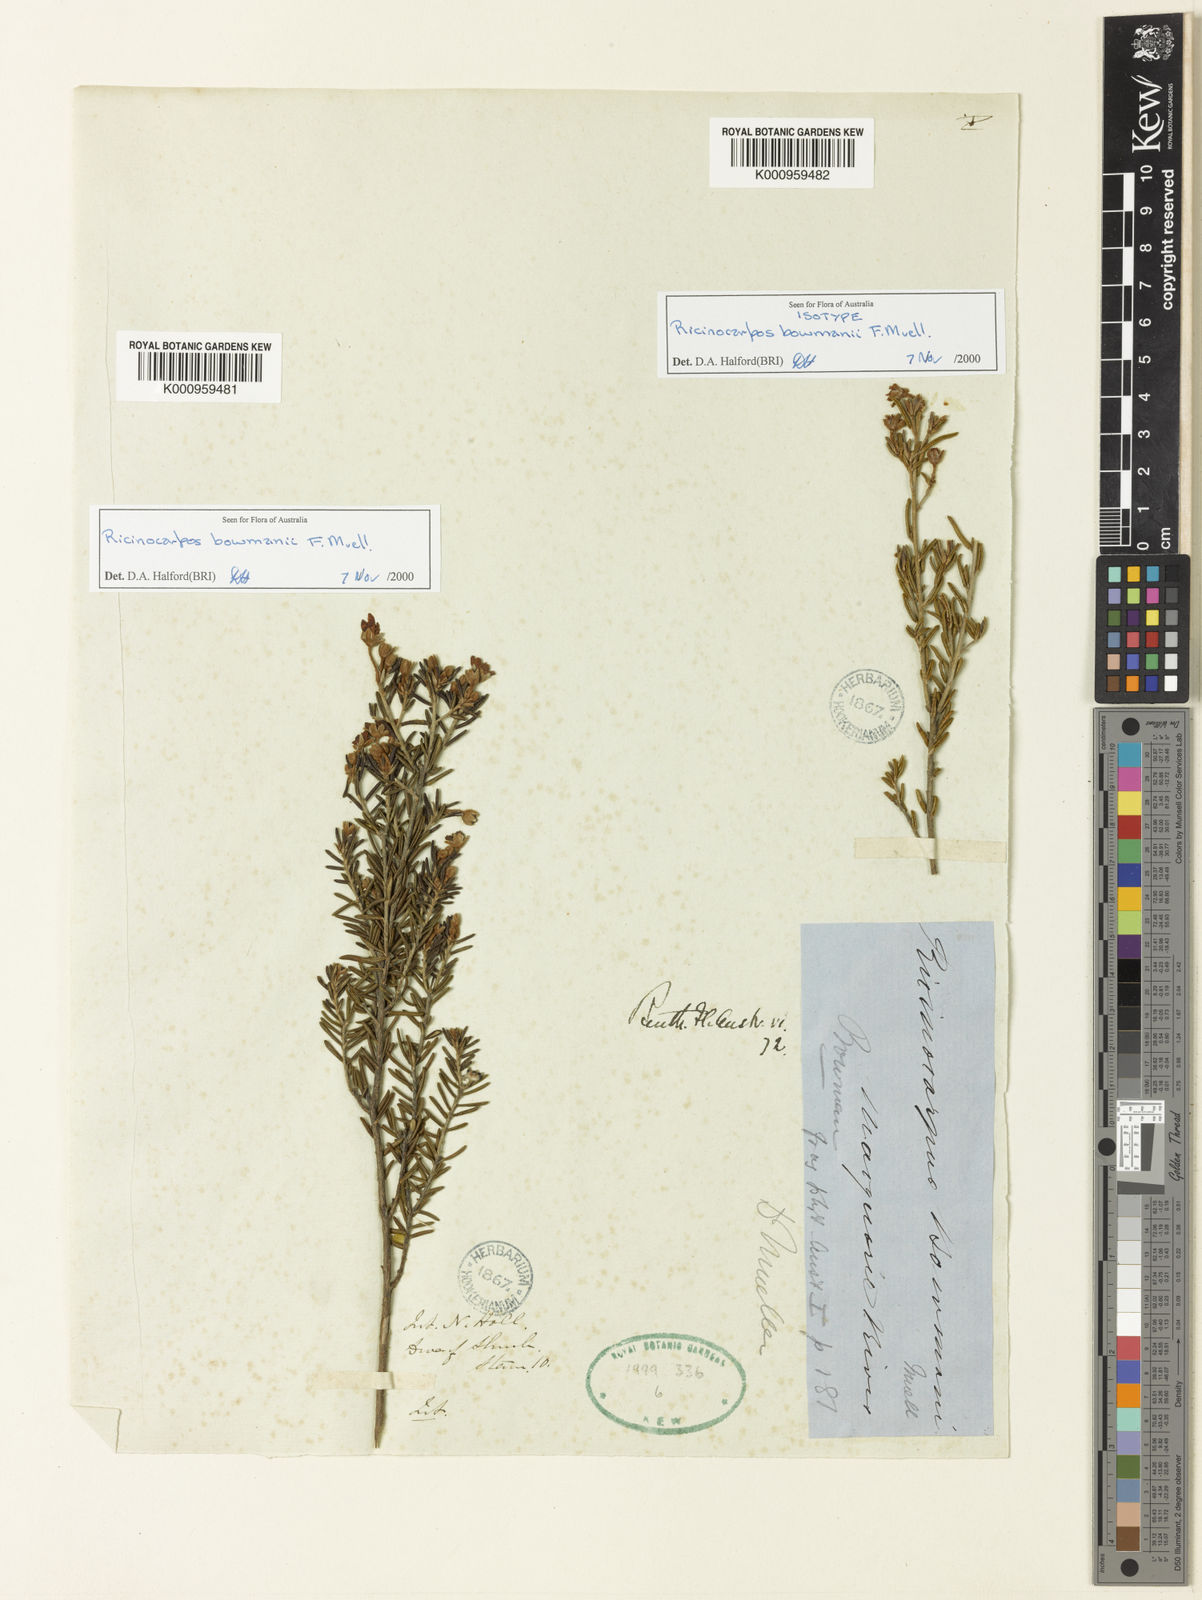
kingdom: Plantae
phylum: Tracheophyta
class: Magnoliopsida
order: Malpighiales
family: Euphorbiaceae
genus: Ricinocarpos
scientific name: Ricinocarpos bowmanii
